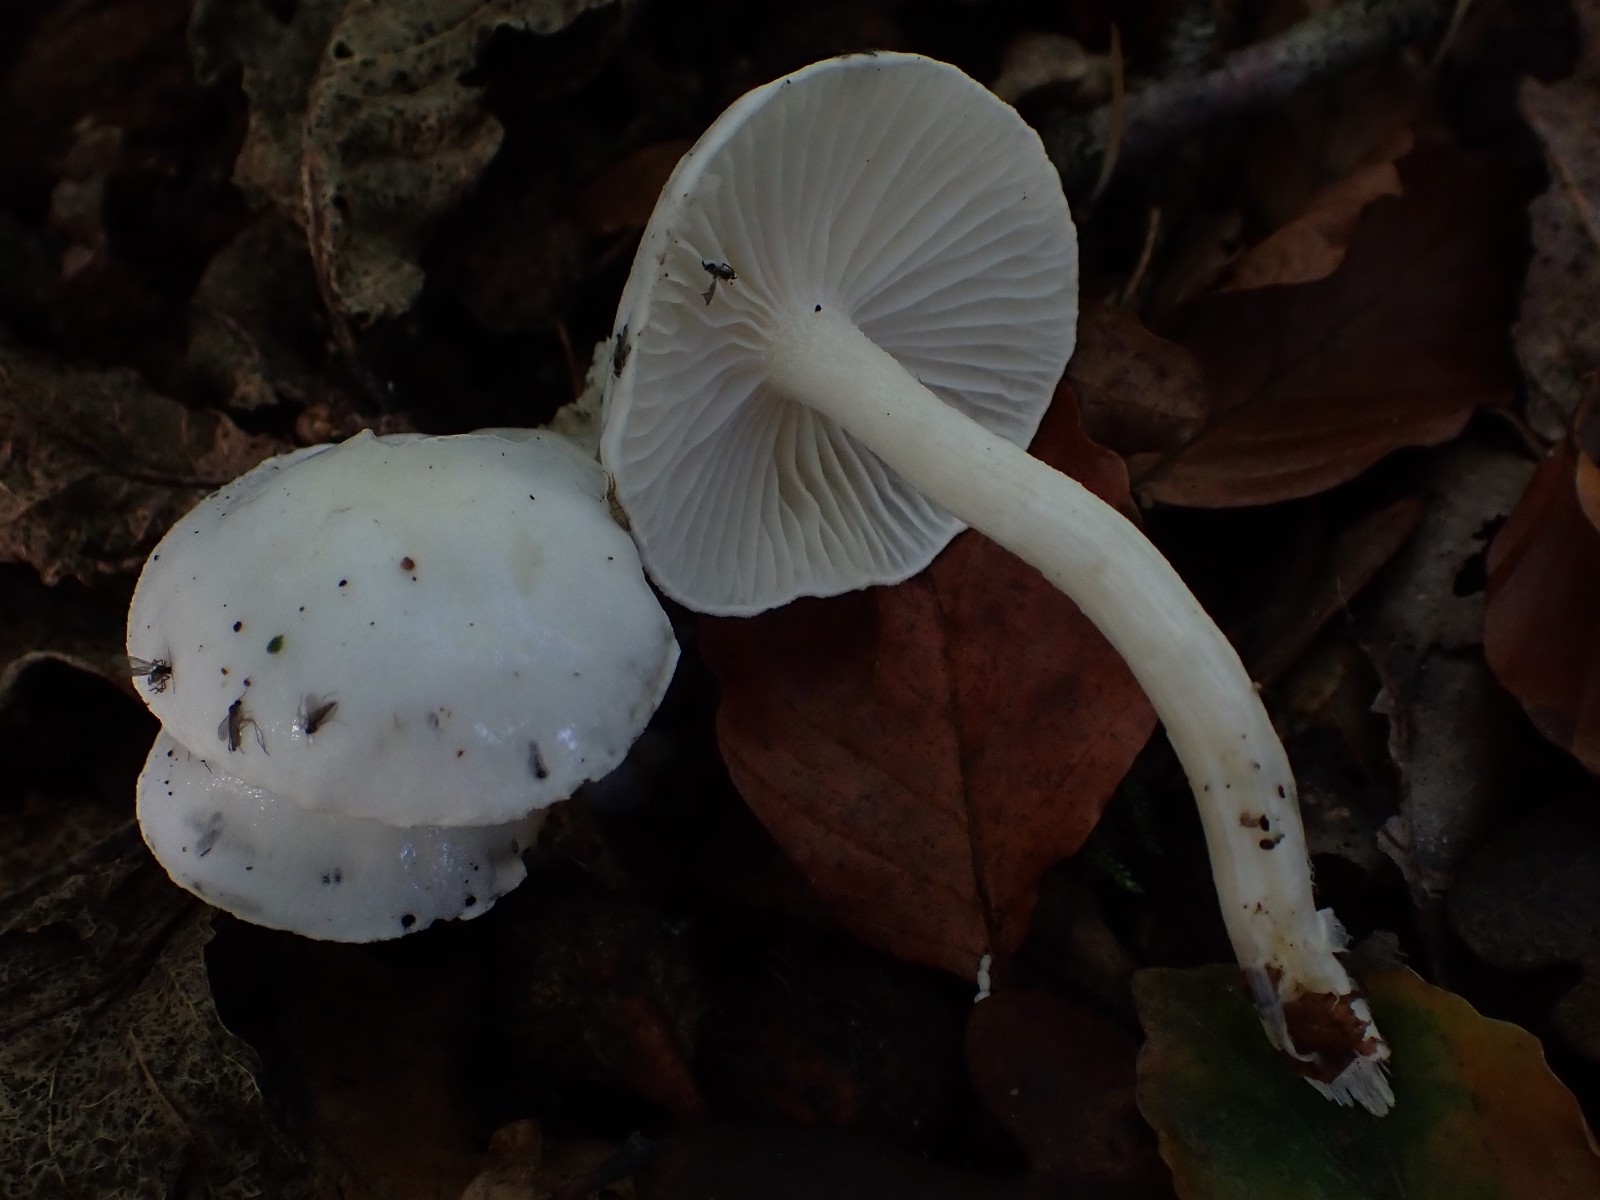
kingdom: Fungi
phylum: Basidiomycota
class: Agaricomycetes
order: Agaricales
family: Hygrophoraceae
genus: Hygrophorus
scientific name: Hygrophorus eburneus
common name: elfenbens-sneglehat
